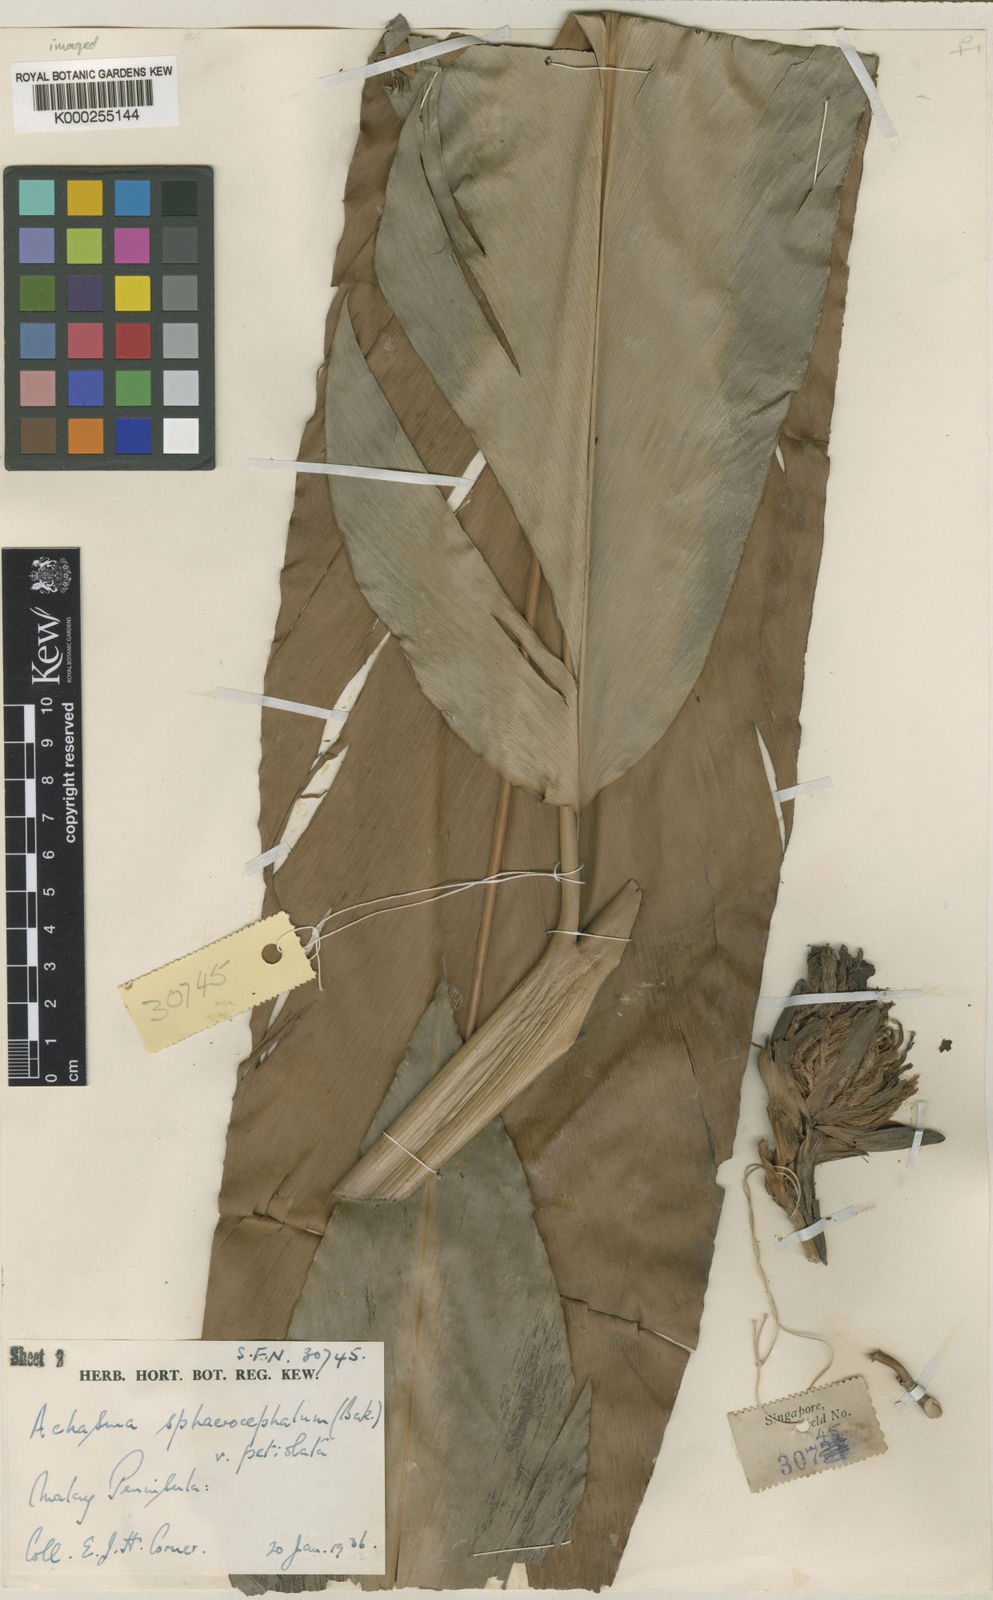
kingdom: Plantae
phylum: Tracheophyta
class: Liliopsida
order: Zingiberales
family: Zingiberaceae
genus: Etlingera
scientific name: Etlingera metriocheilos
